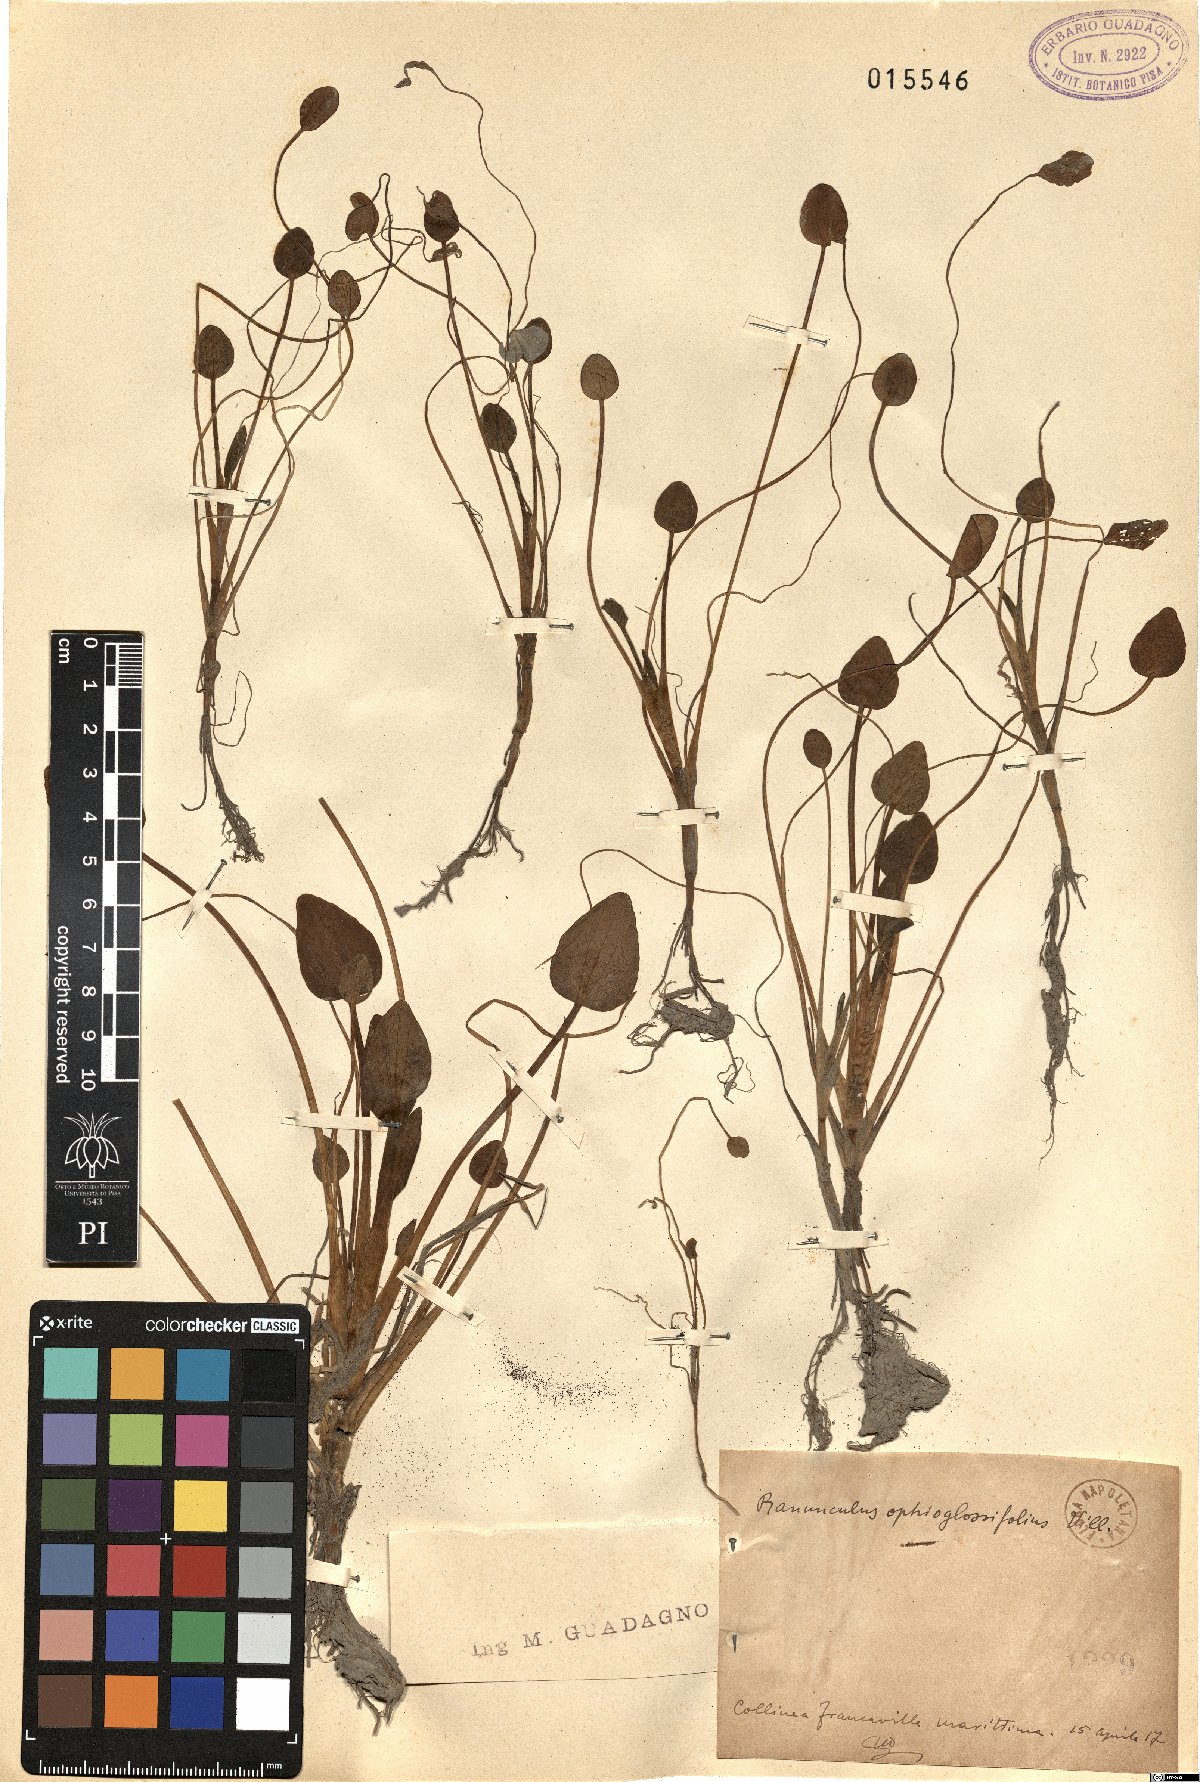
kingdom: Plantae
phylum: Tracheophyta
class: Magnoliopsida
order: Ranunculales
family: Ranunculaceae
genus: Ranunculus
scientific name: Ranunculus ophioglossifolius
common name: Adder's-tongue spearwort
